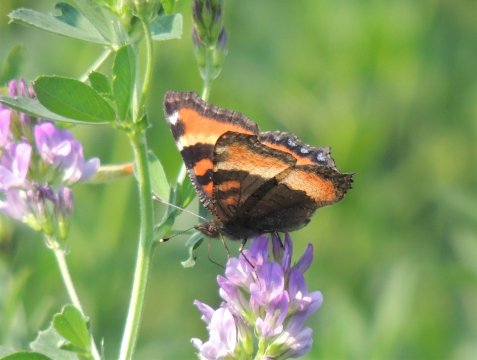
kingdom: Animalia
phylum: Arthropoda
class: Insecta
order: Lepidoptera
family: Nymphalidae
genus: Aglais
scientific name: Aglais milberti
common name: Milbert's Tortoiseshell
